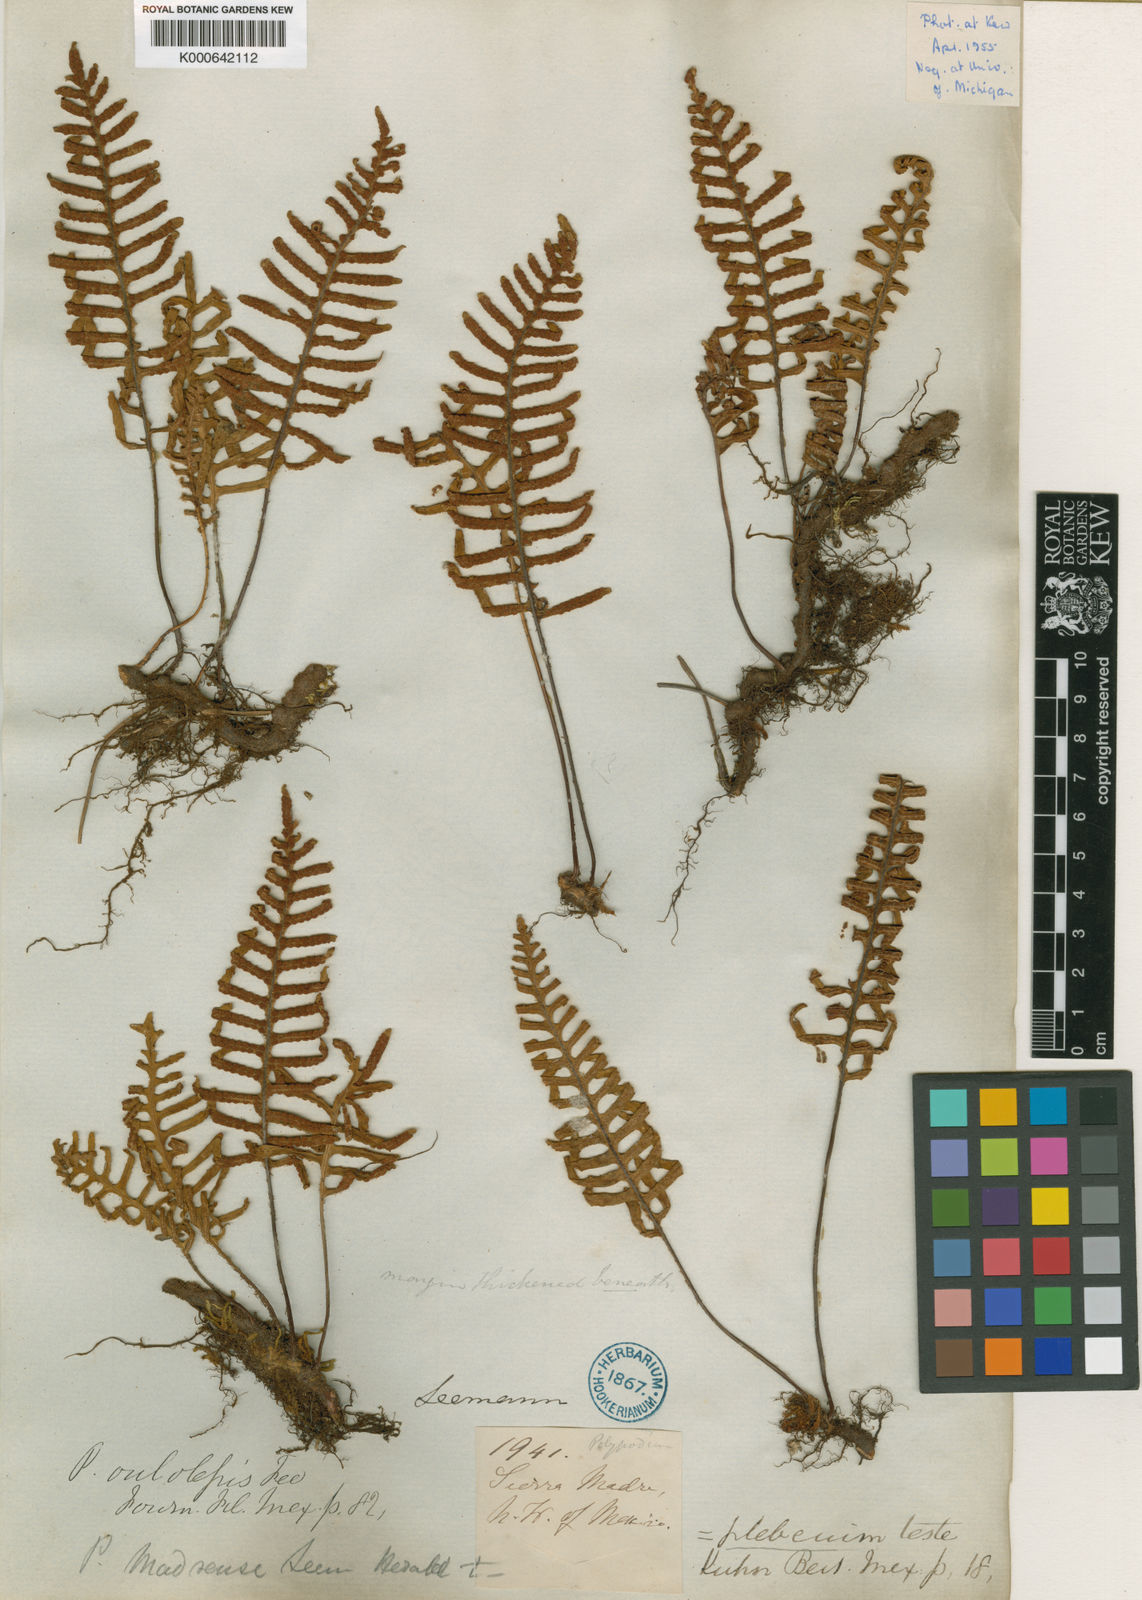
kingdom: Plantae
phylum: Tracheophyta
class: Polypodiopsida
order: Polypodiales
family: Polypodiaceae
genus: Pleopeltis
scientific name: Pleopeltis madrensis
